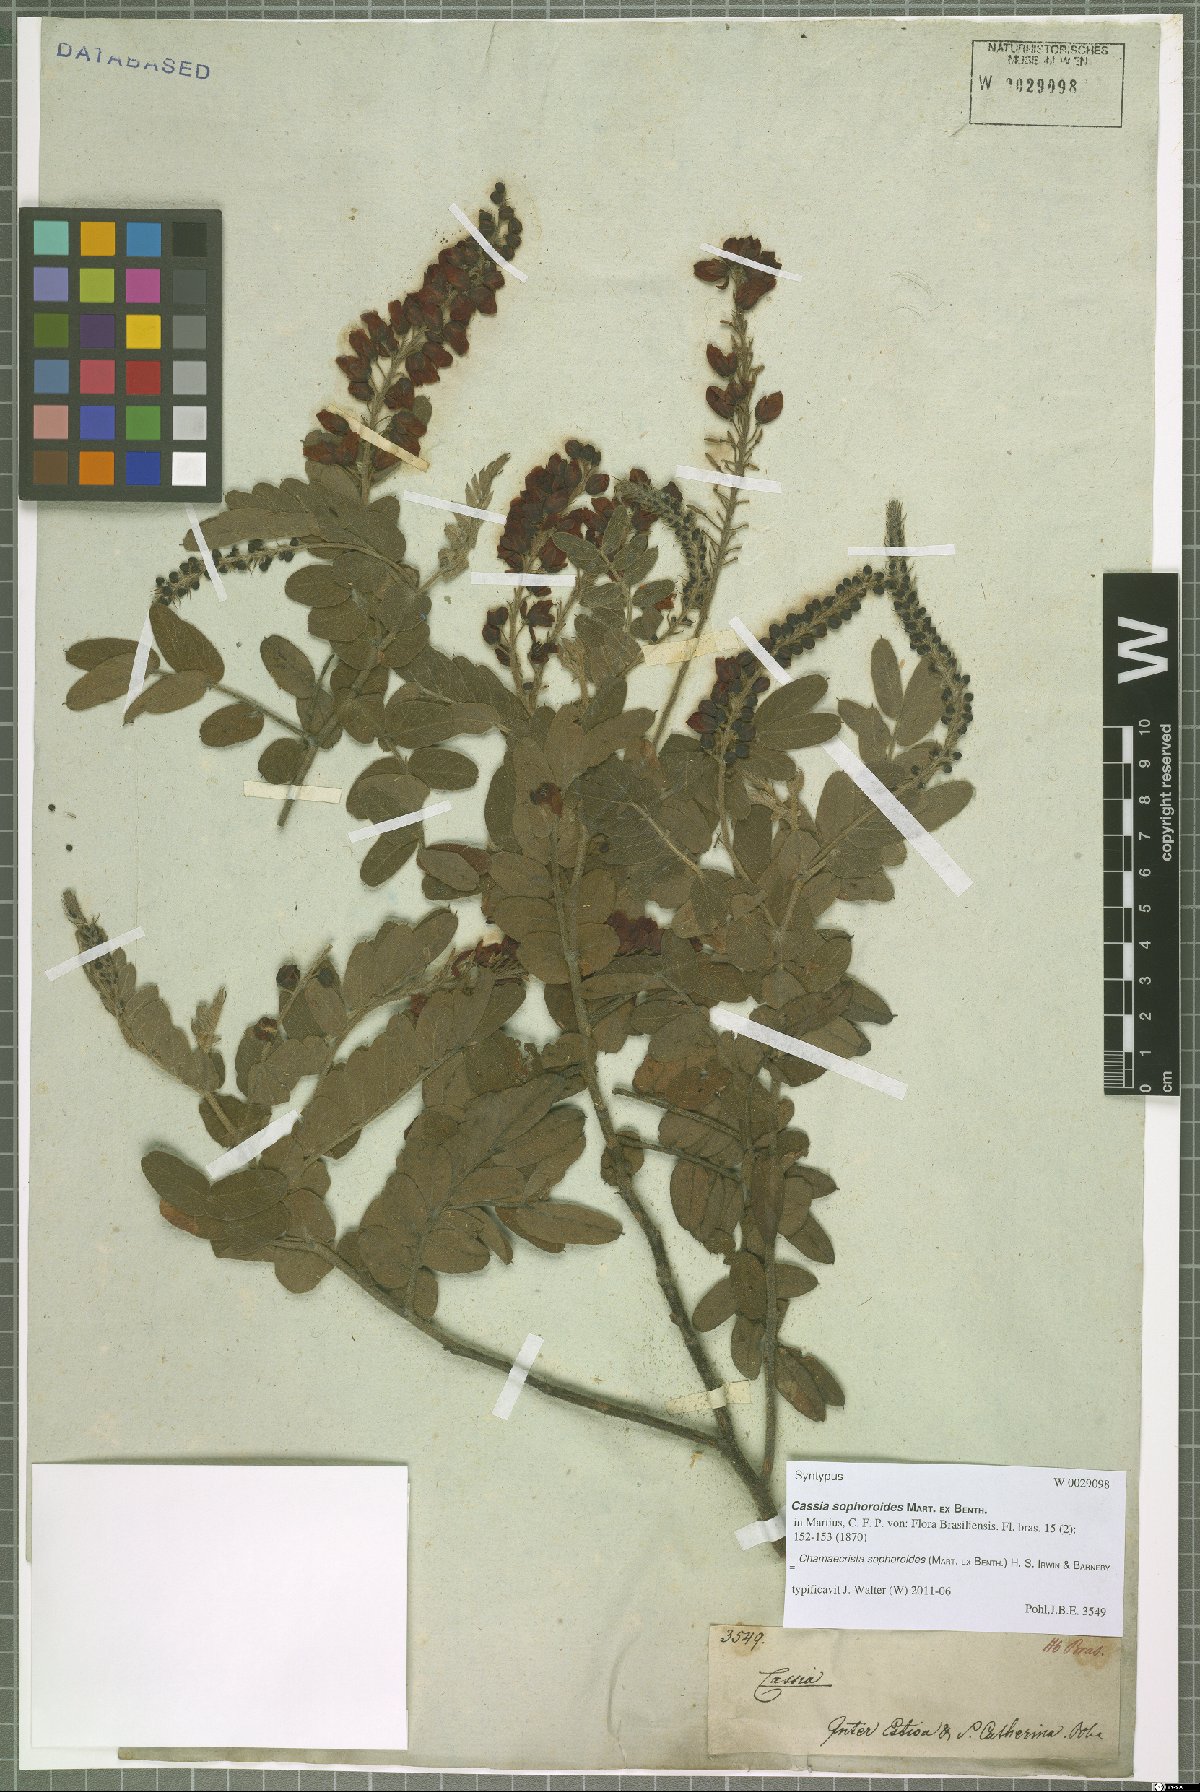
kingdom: Plantae
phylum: Tracheophyta
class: Magnoliopsida
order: Fabales
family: Fabaceae
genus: Chamaecrista
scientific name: Chamaecrista sophoroides
